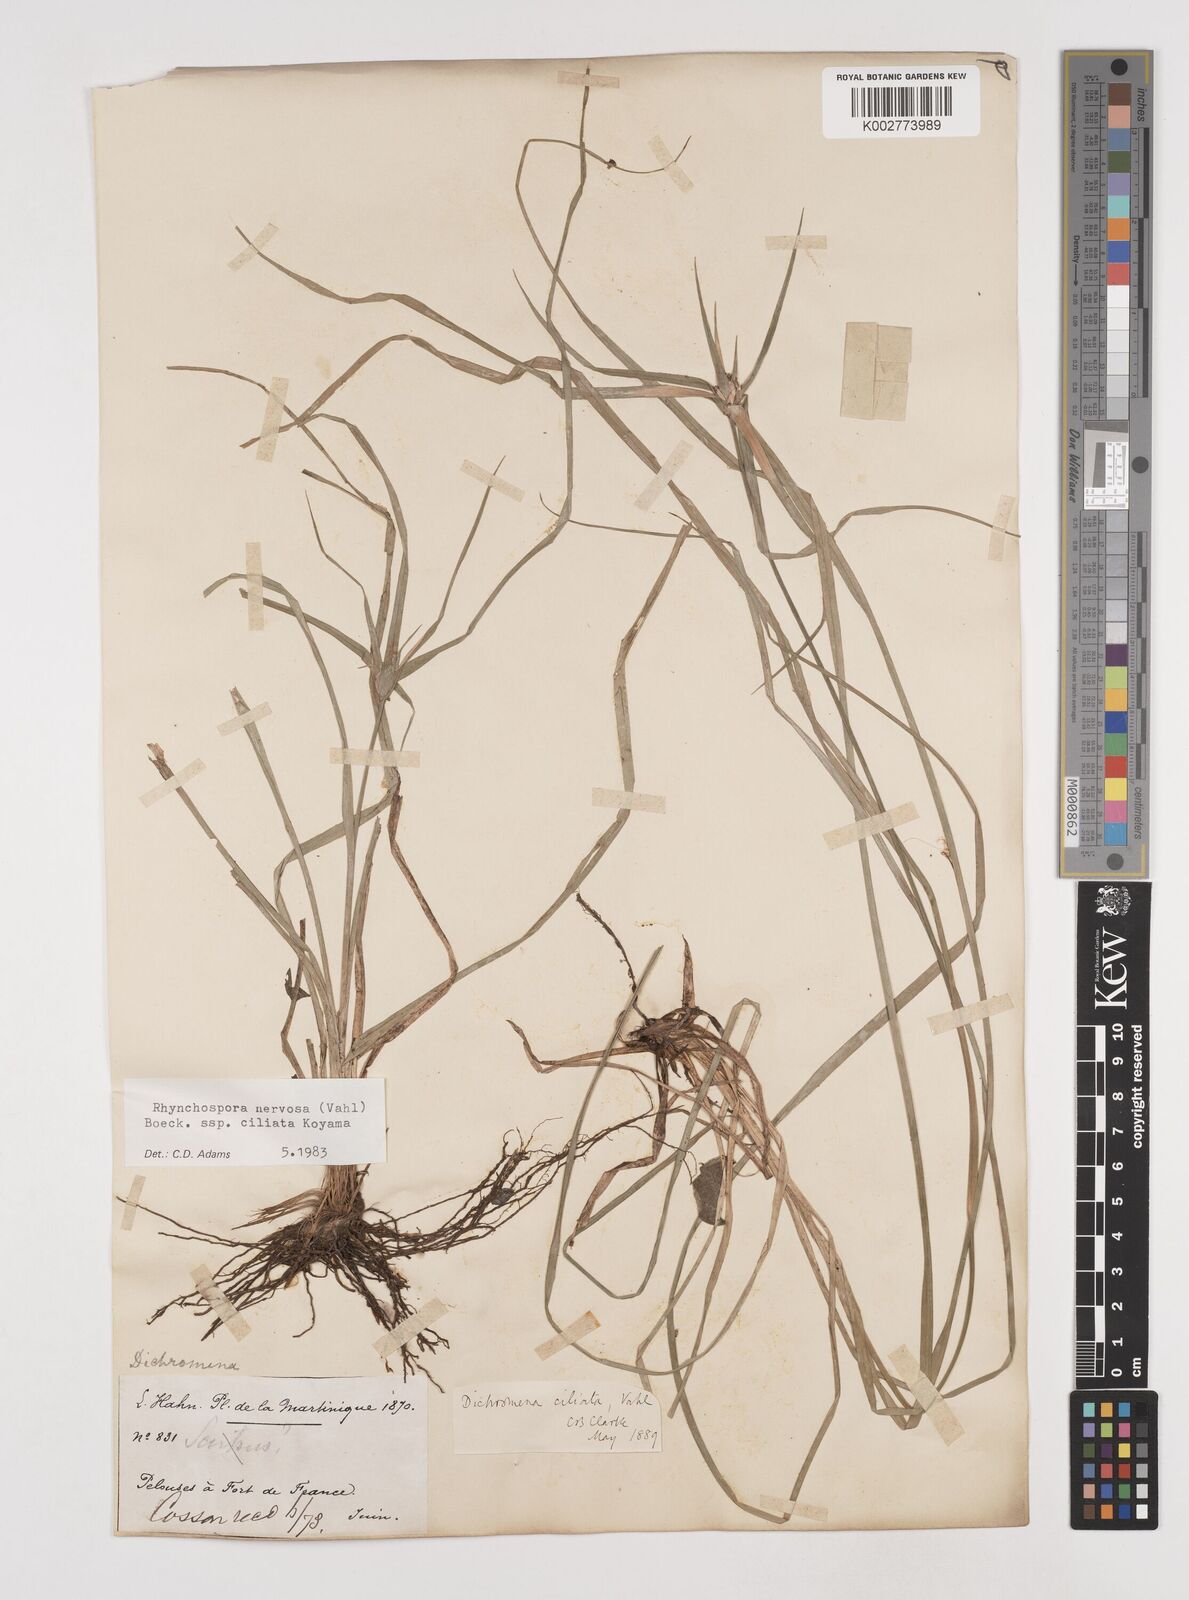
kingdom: Plantae
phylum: Tracheophyta
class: Liliopsida
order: Poales
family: Cyperaceae
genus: Rhynchospora
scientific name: Rhynchospora pura
